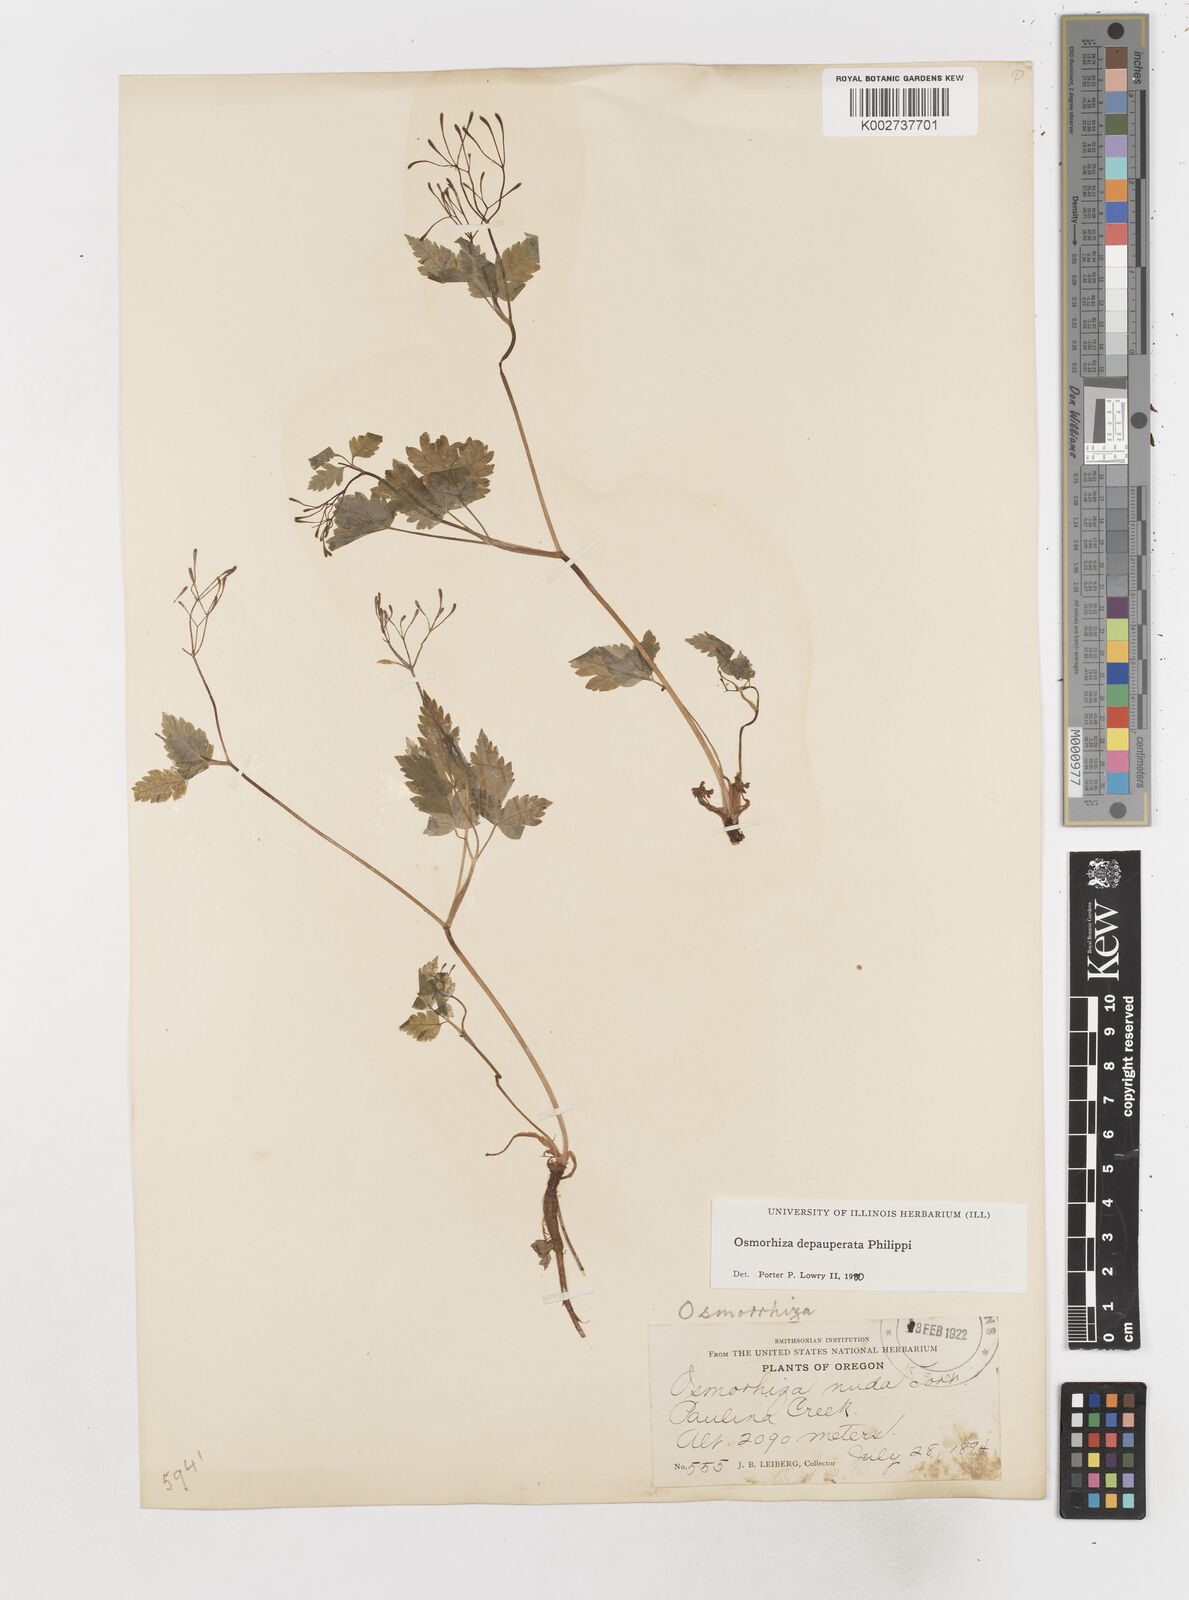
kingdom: Plantae
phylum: Tracheophyta
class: Magnoliopsida
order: Apiales
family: Apiaceae
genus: Osmorhiza
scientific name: Osmorhiza depauperata
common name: Blunt sweet cicely
